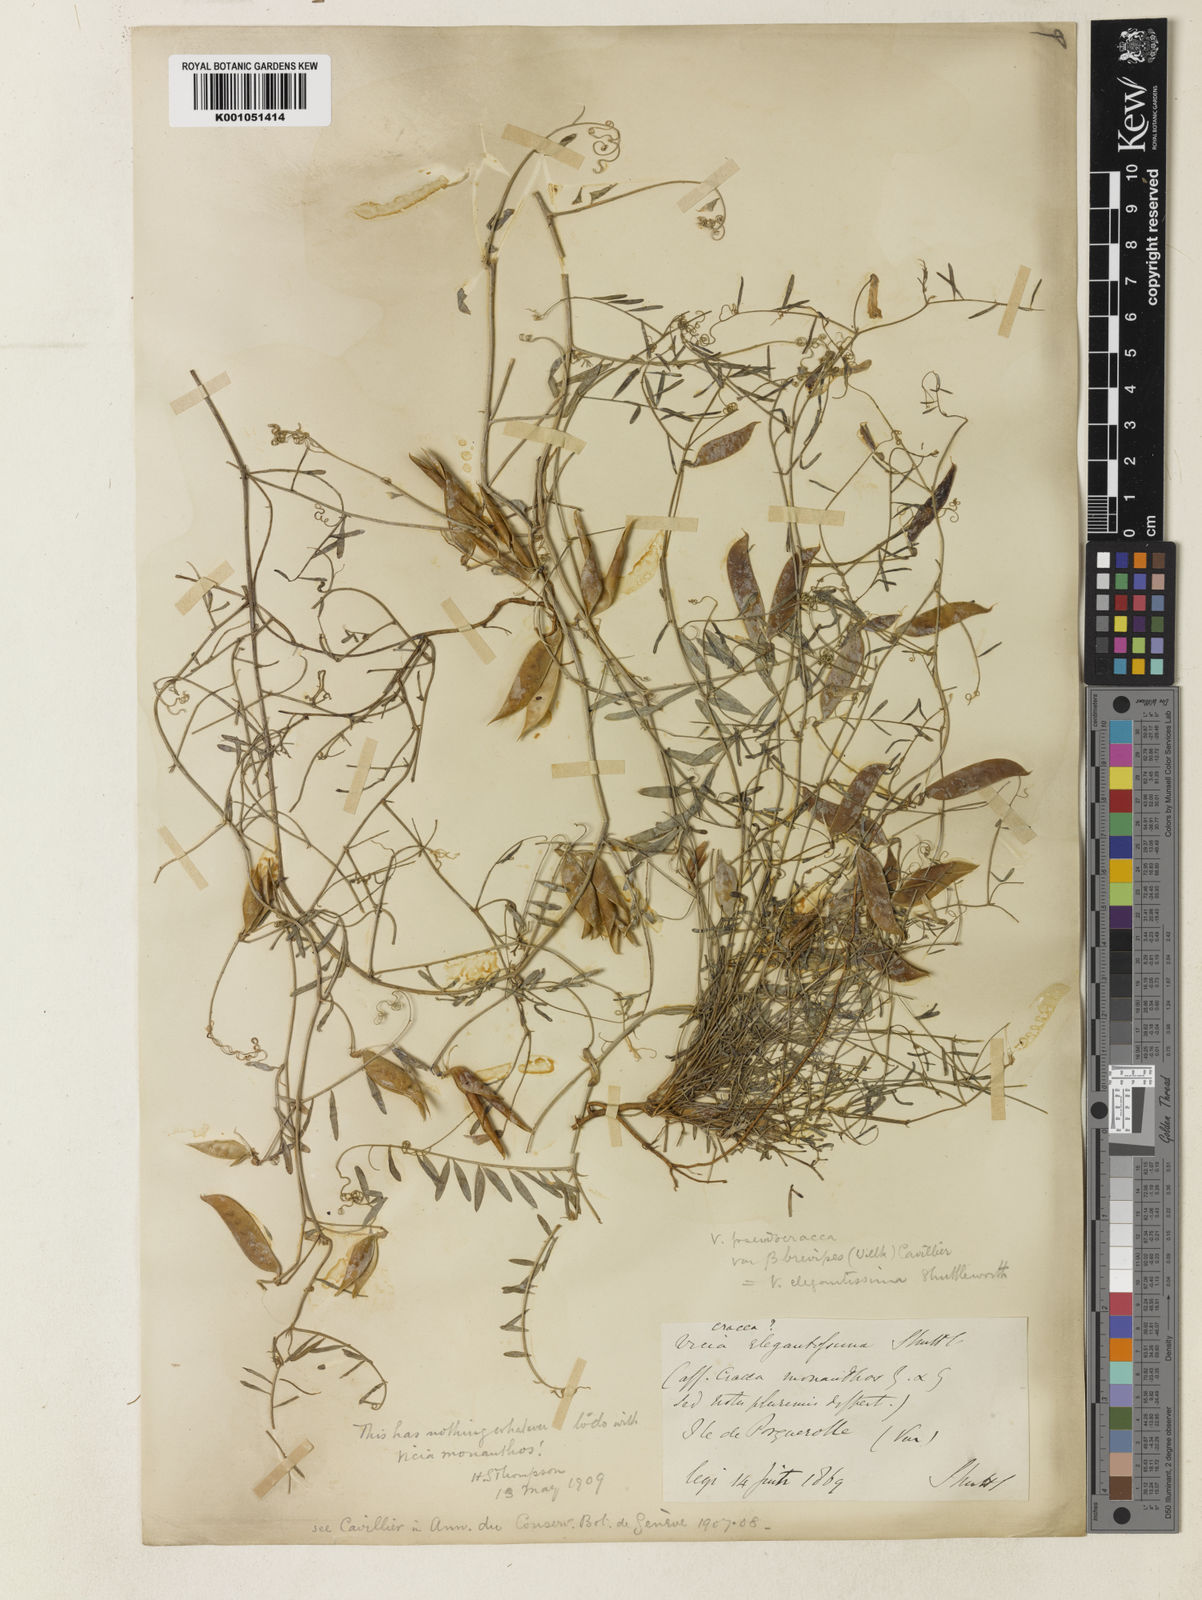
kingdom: Plantae
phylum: Tracheophyta
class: Magnoliopsida
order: Fabales
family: Fabaceae
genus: Vicia
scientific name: Vicia villosa
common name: Fodder vetch
